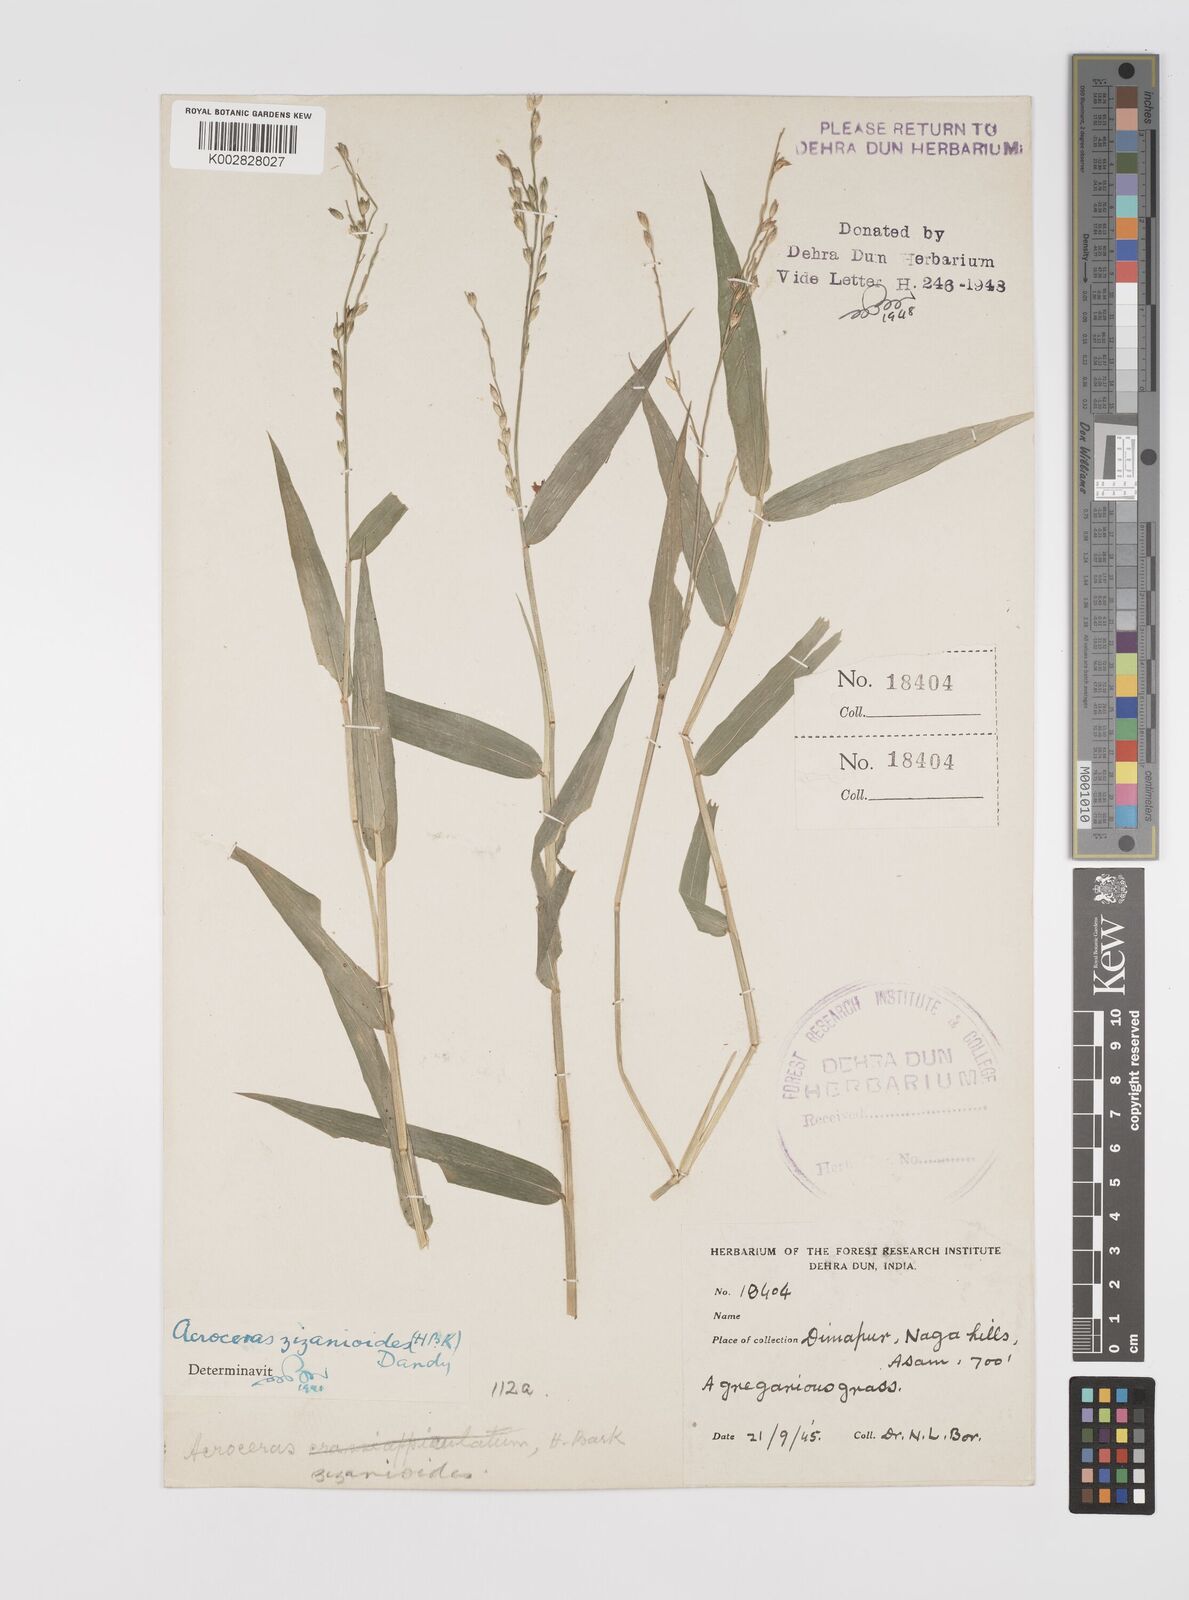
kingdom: Plantae
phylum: Tracheophyta
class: Liliopsida
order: Poales
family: Poaceae
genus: Acroceras
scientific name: Acroceras
